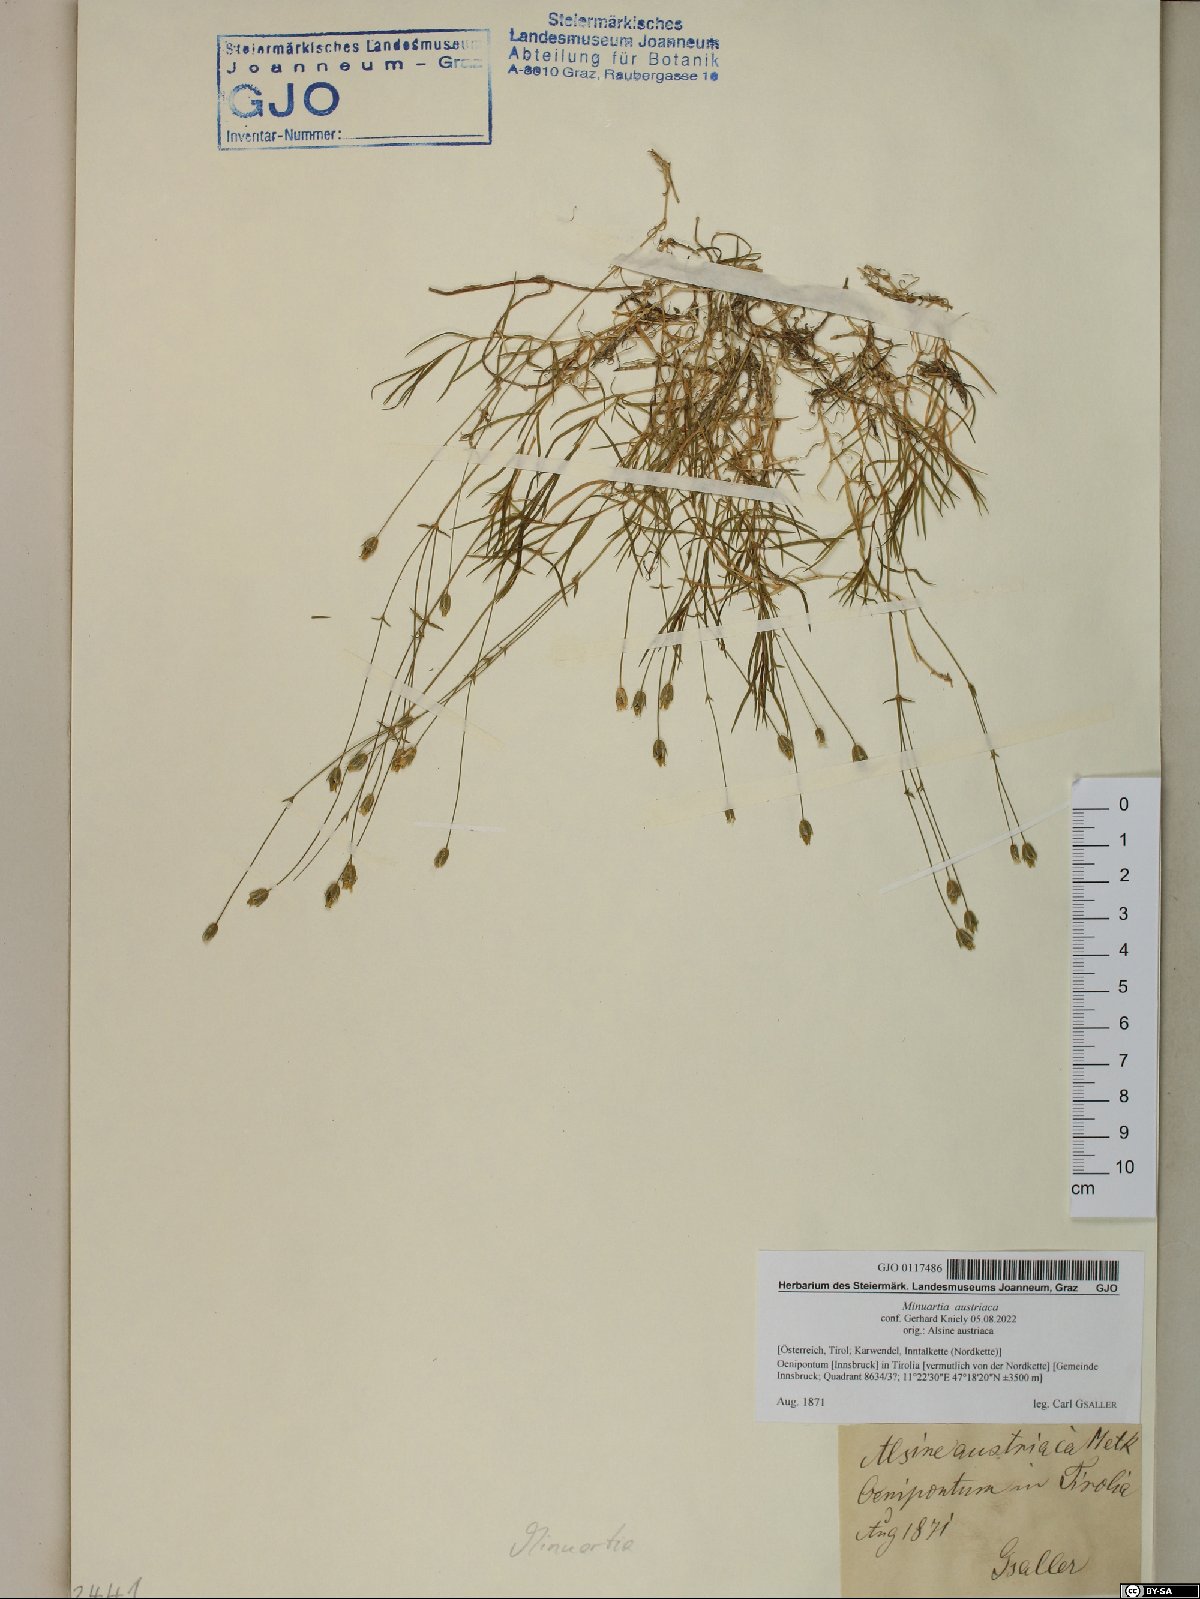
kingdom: Plantae
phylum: Tracheophyta
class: Magnoliopsida
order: Caryophyllales
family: Caryophyllaceae
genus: Sabulina
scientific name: Sabulina austriaca
